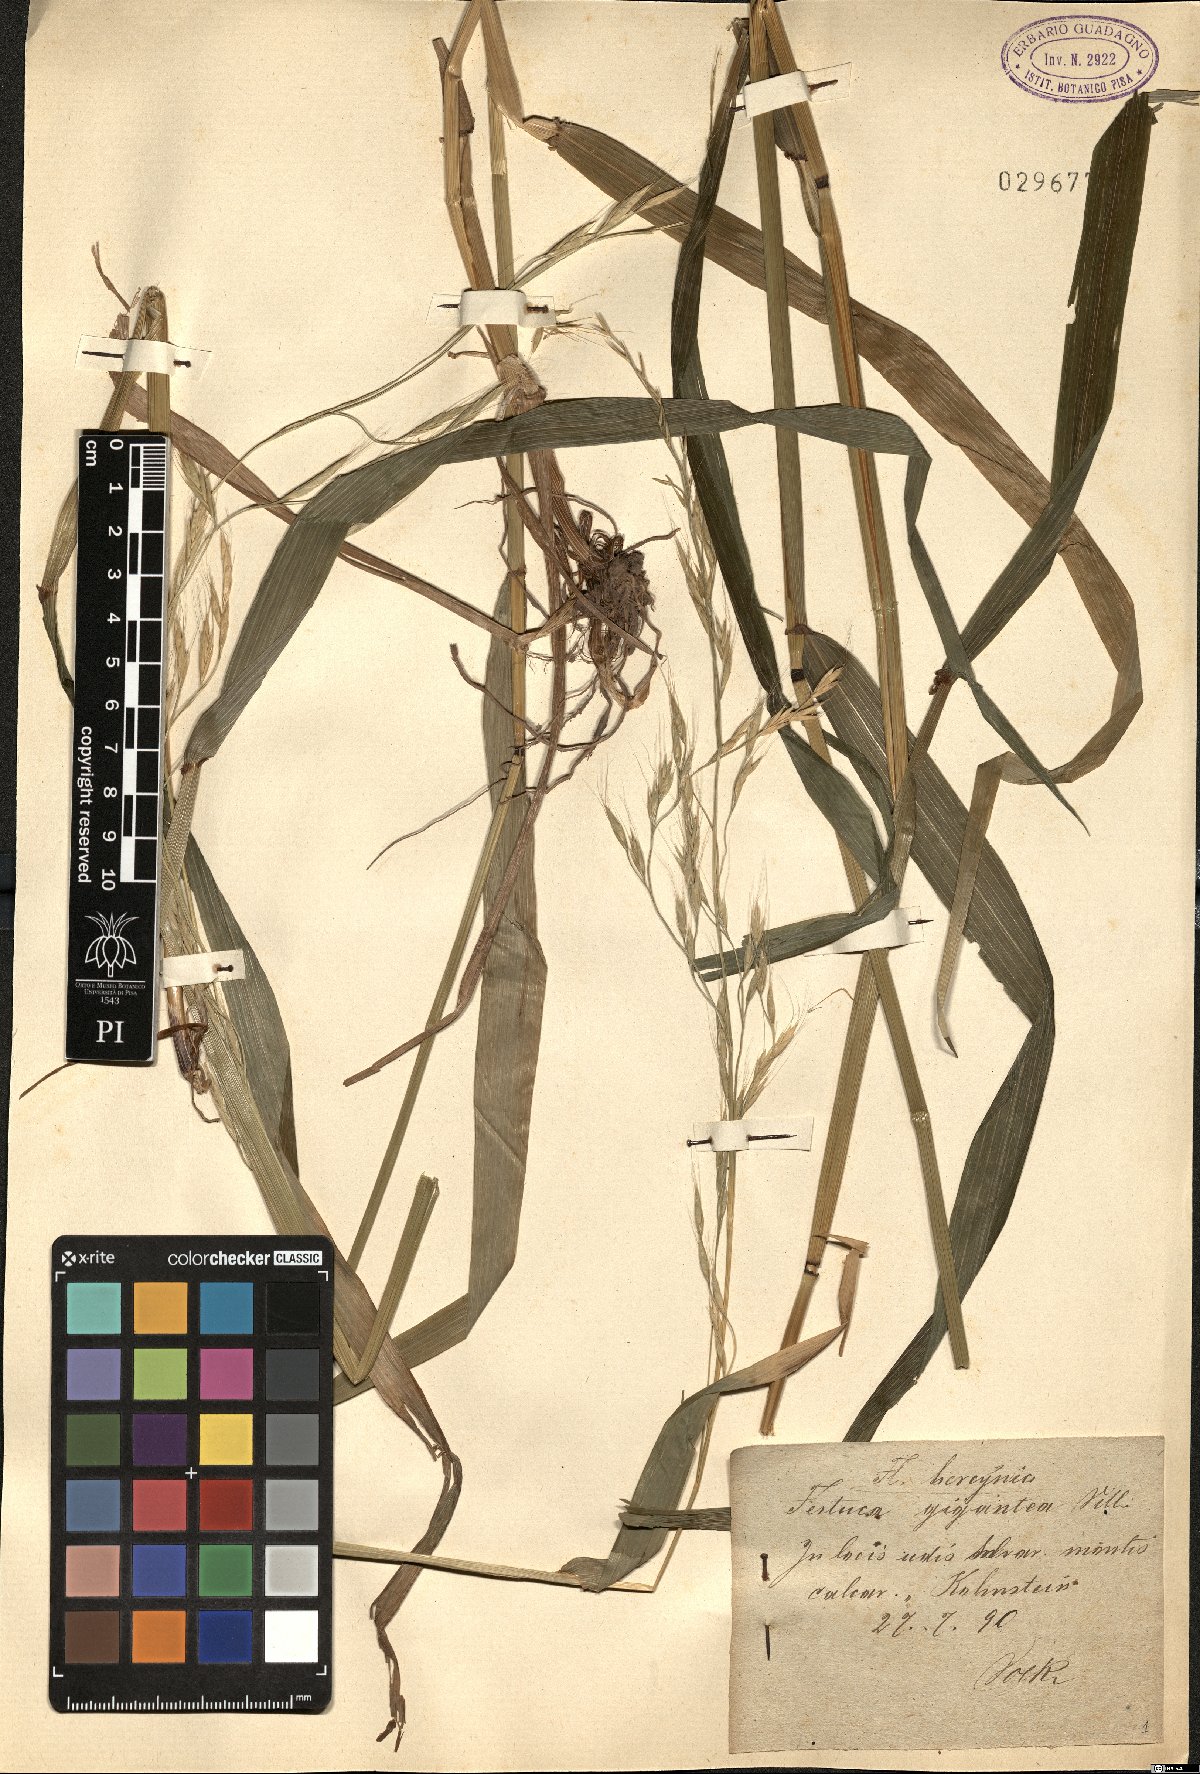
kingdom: Plantae
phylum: Tracheophyta
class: Liliopsida
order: Poales
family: Poaceae
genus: Lolium
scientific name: Lolium giganteum
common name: Giant fescue
